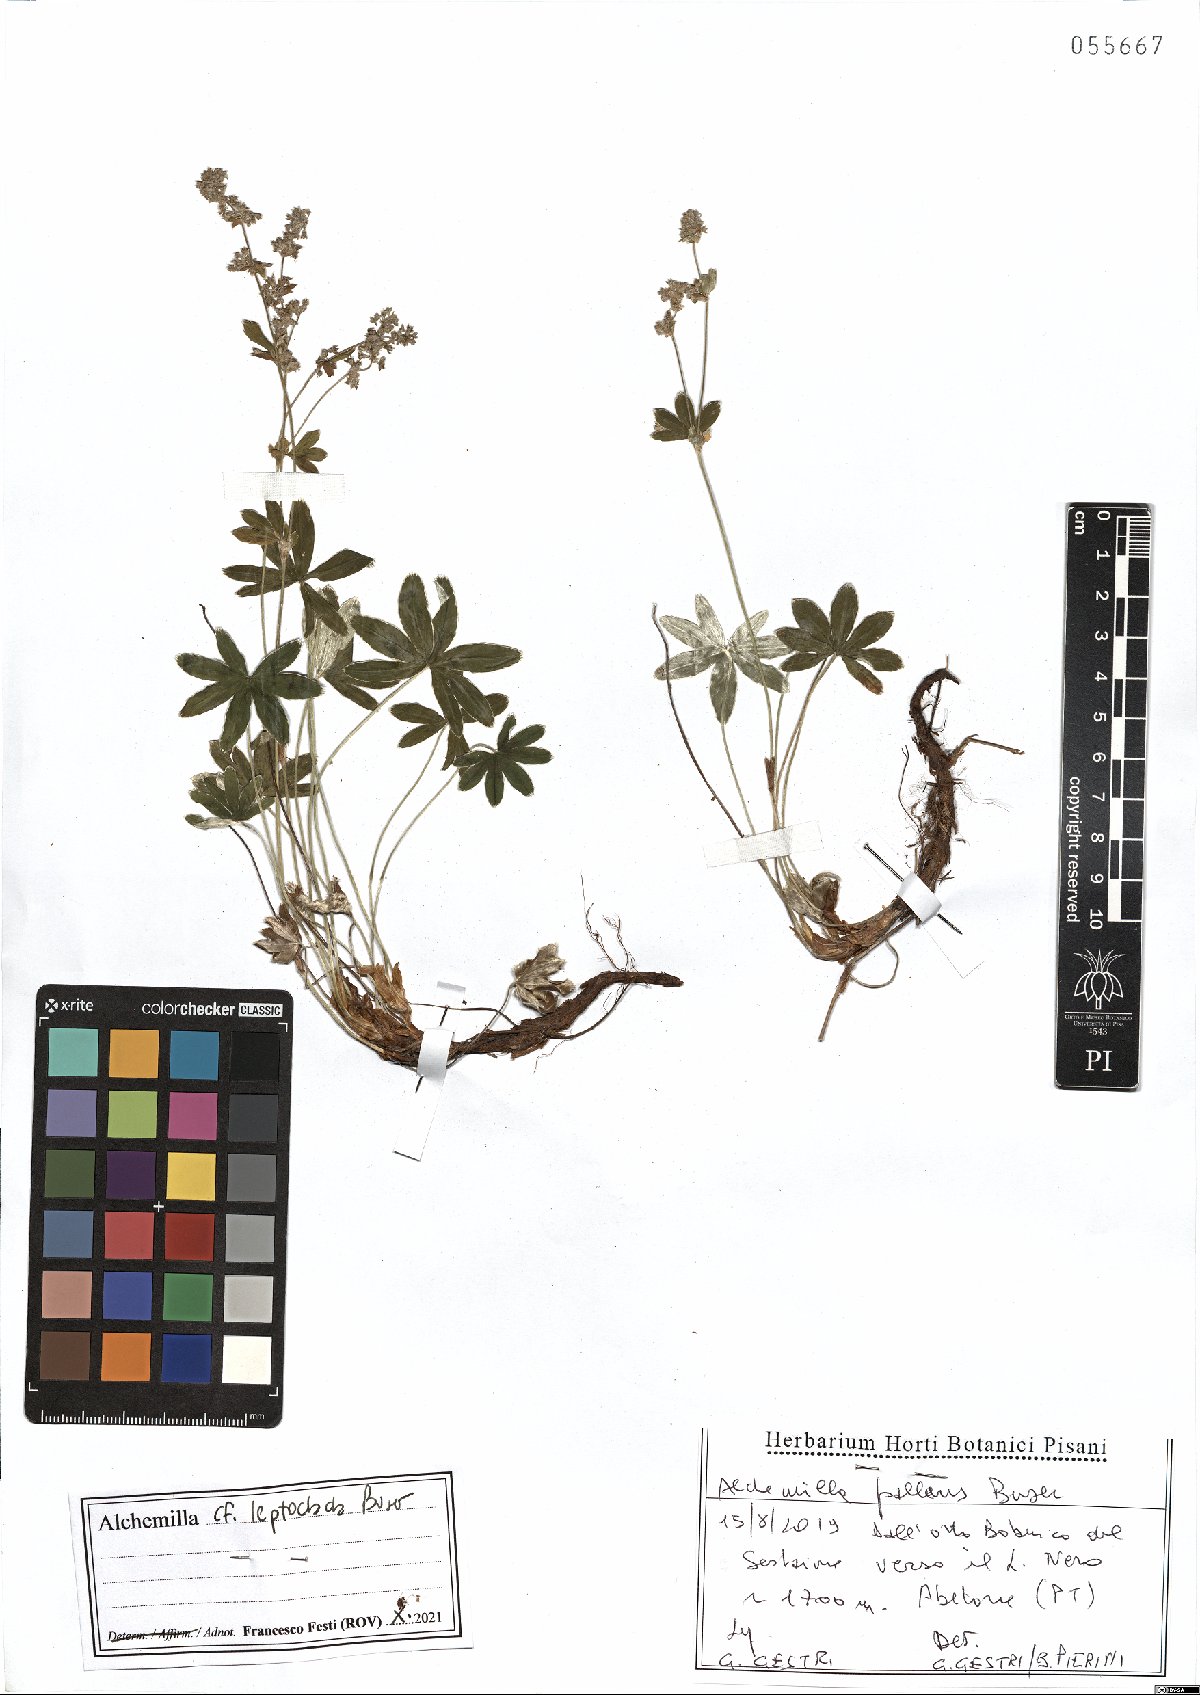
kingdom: Plantae
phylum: Tracheophyta
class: Magnoliopsida
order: Rosales
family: Rosaceae
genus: Alchemilla
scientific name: Alchemilla leptoclada
